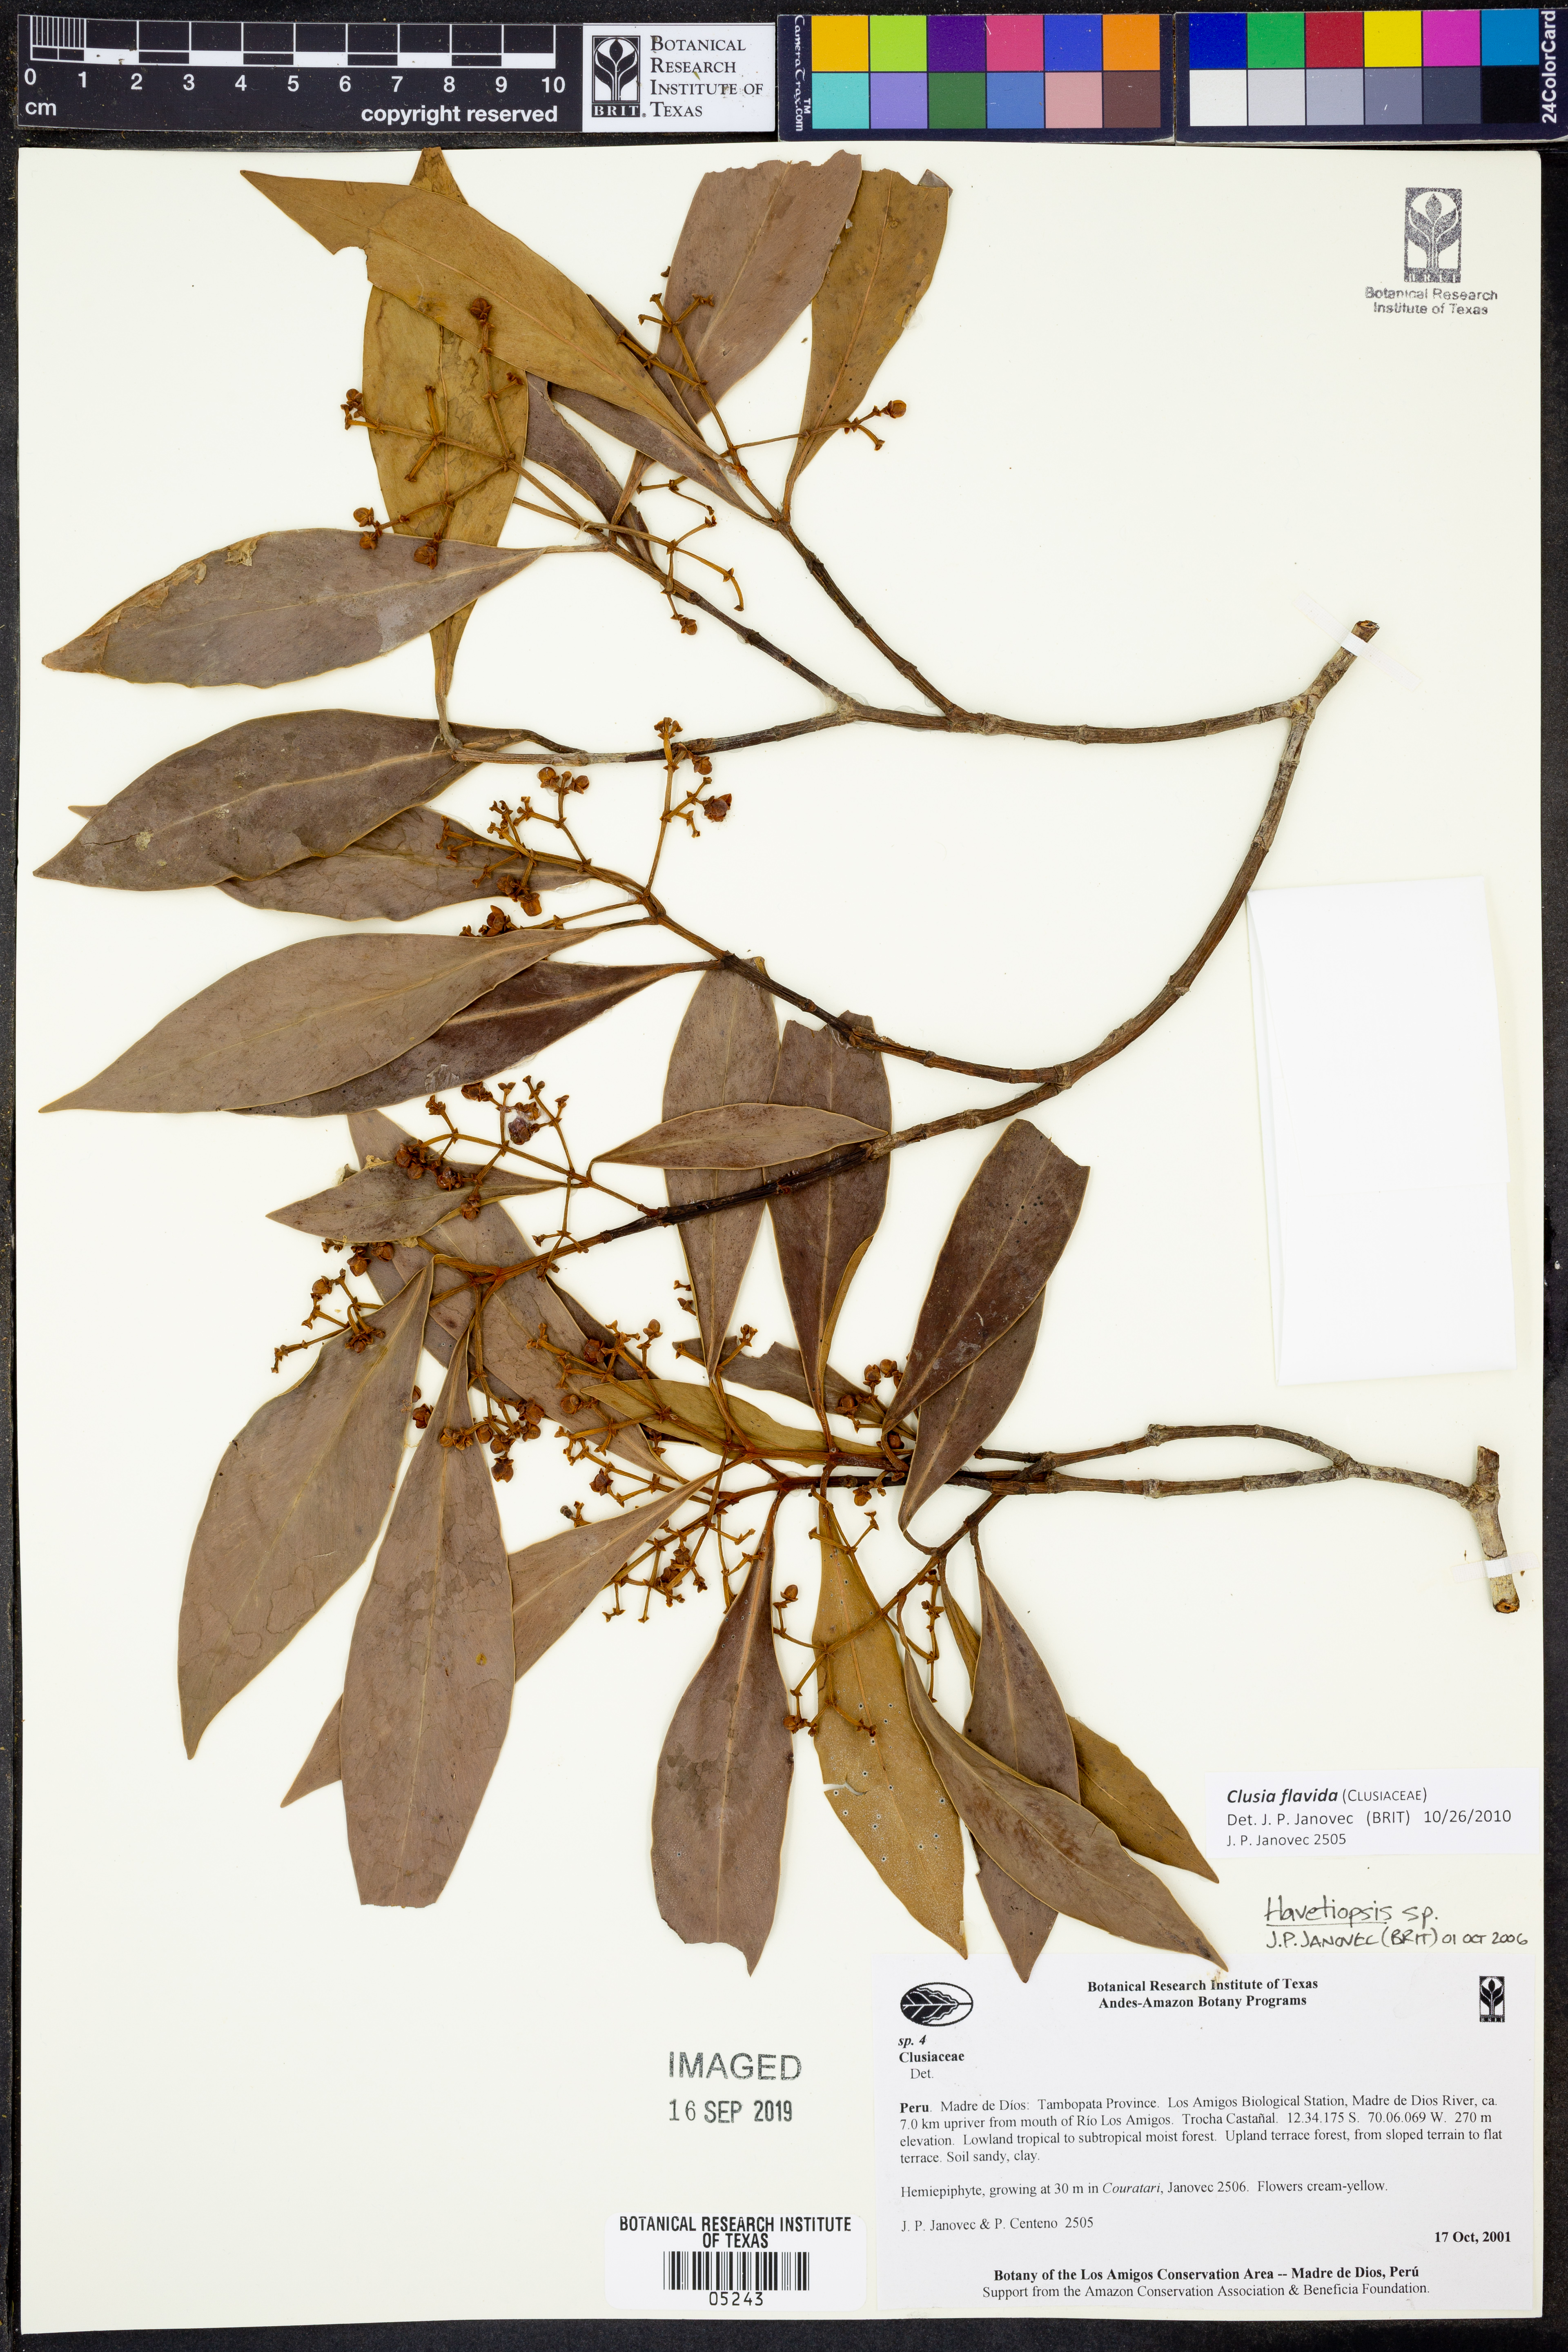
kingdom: Plantae
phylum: Tracheophyta
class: Magnoliopsida
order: Malpighiales
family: Clusiaceae
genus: Clusia
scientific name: Clusia flavida
